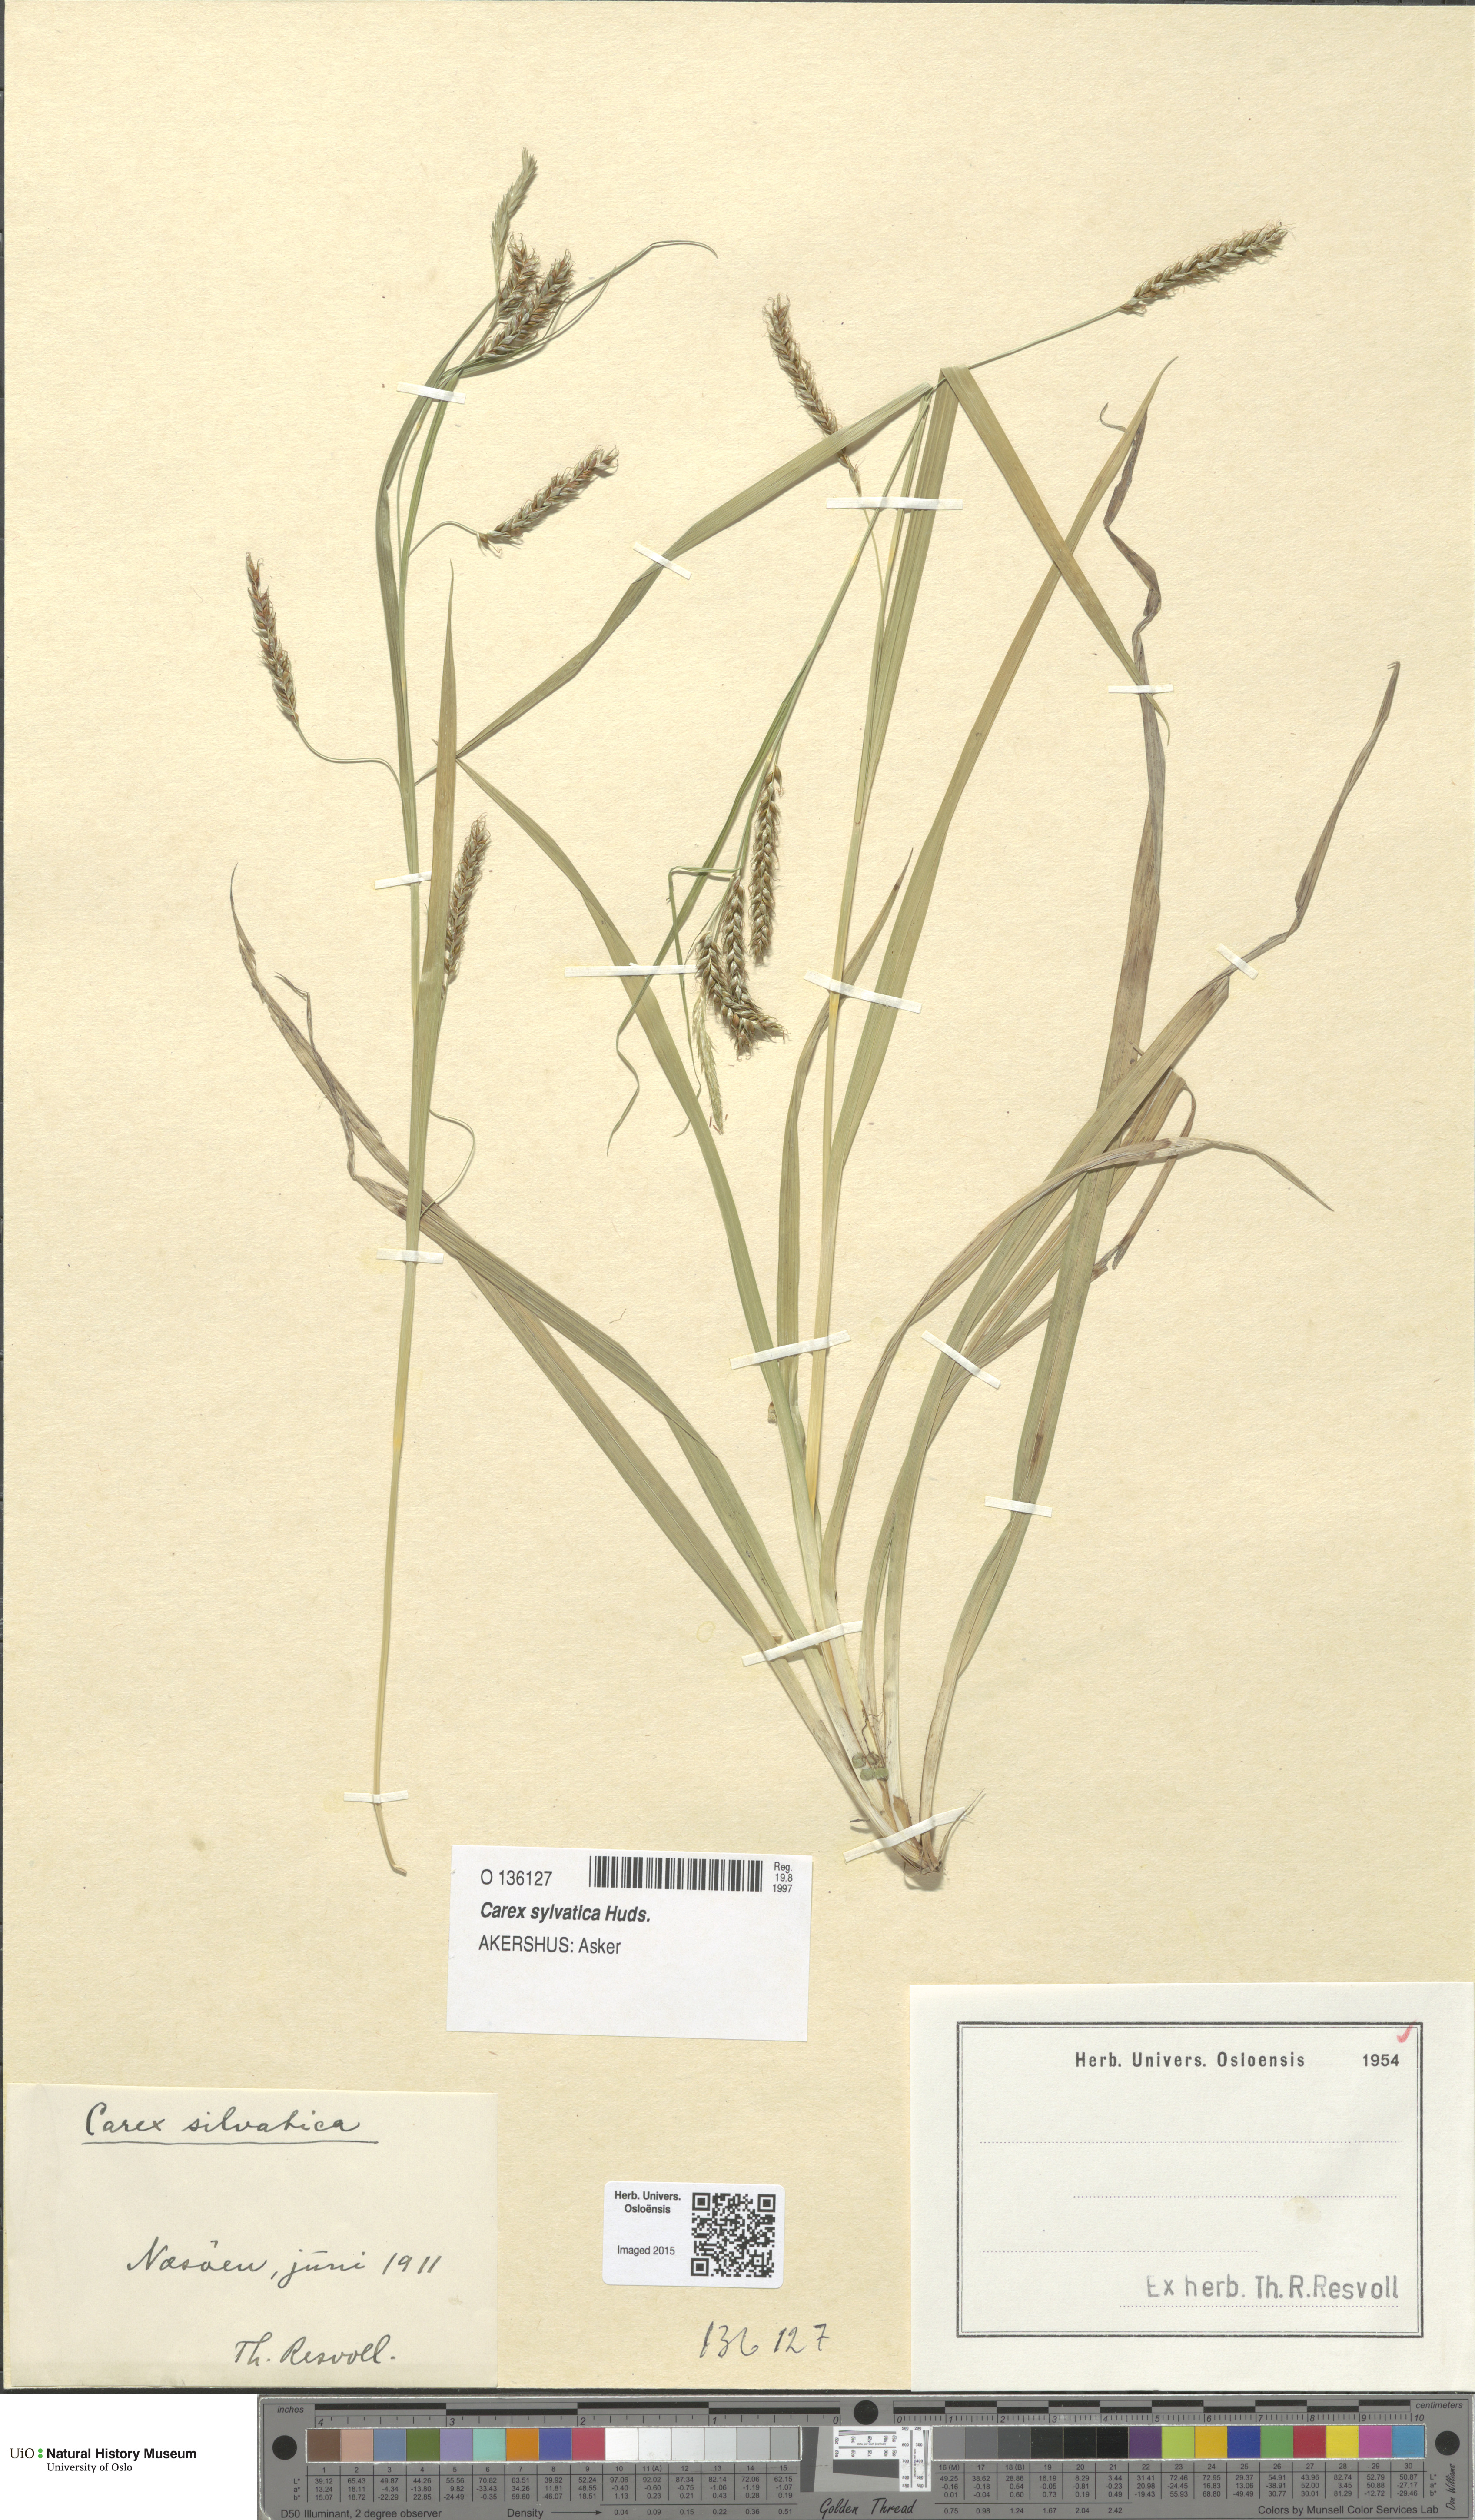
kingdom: Plantae
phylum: Tracheophyta
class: Liliopsida
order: Poales
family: Cyperaceae
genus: Carex
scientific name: Carex sylvatica
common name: Wood-sedge
